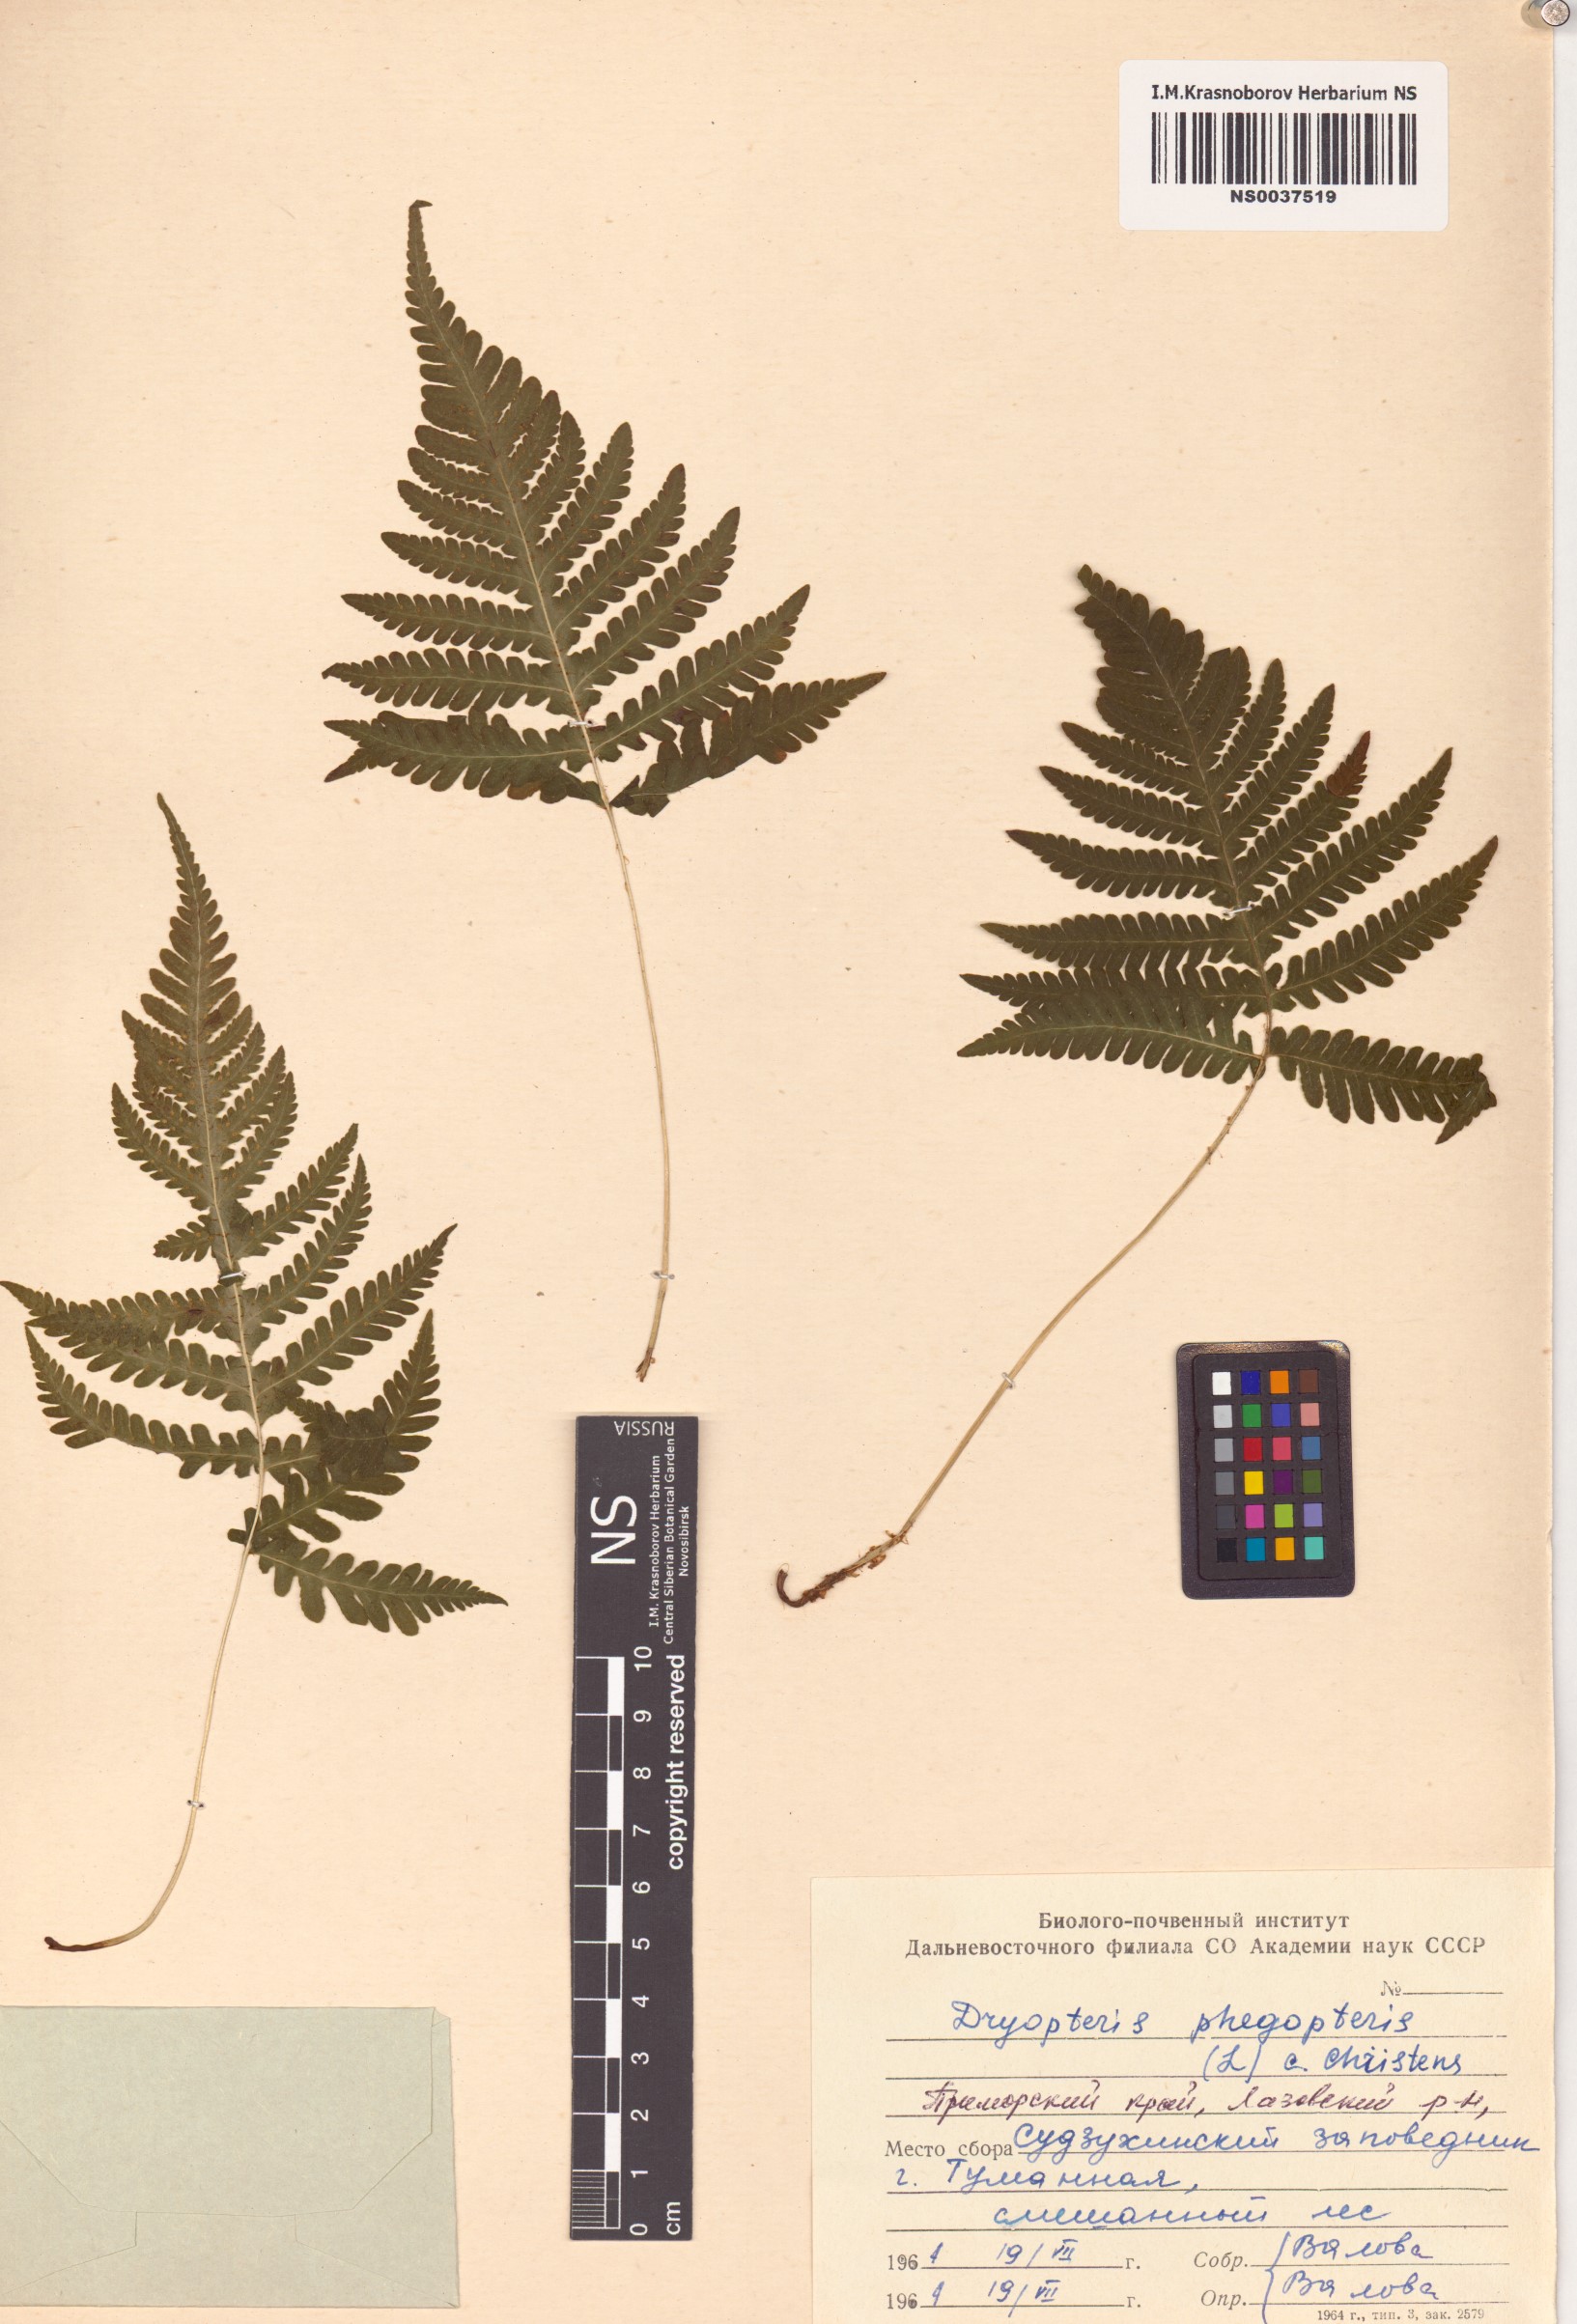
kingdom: Plantae
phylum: Tracheophyta
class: Polypodiopsida
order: Polypodiales
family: Thelypteridaceae
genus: Phegopteris
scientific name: Phegopteris connectilis
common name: Beech fern
